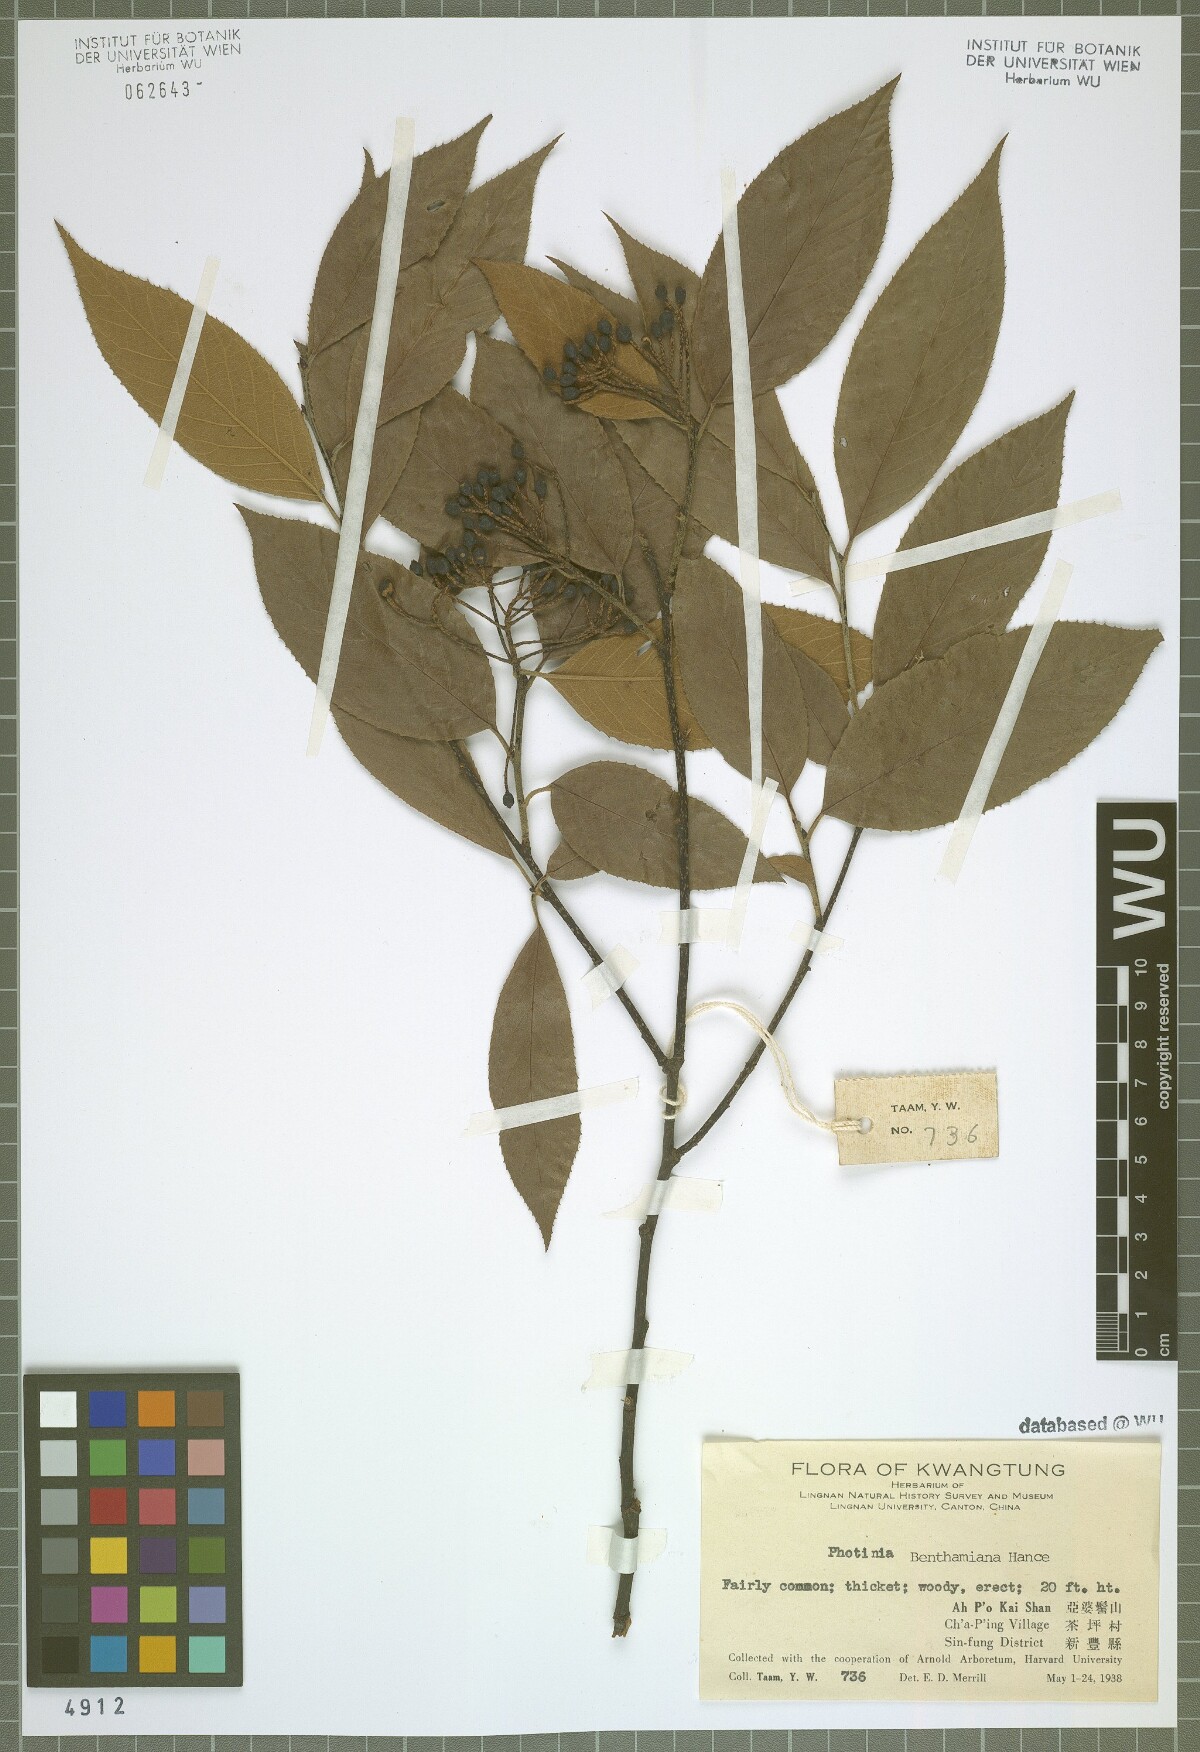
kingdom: Plantae
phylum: Tracheophyta
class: Magnoliopsida
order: Rosales
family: Rosaceae
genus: Pourthiaea
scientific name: Pourthiaea benthamiana
